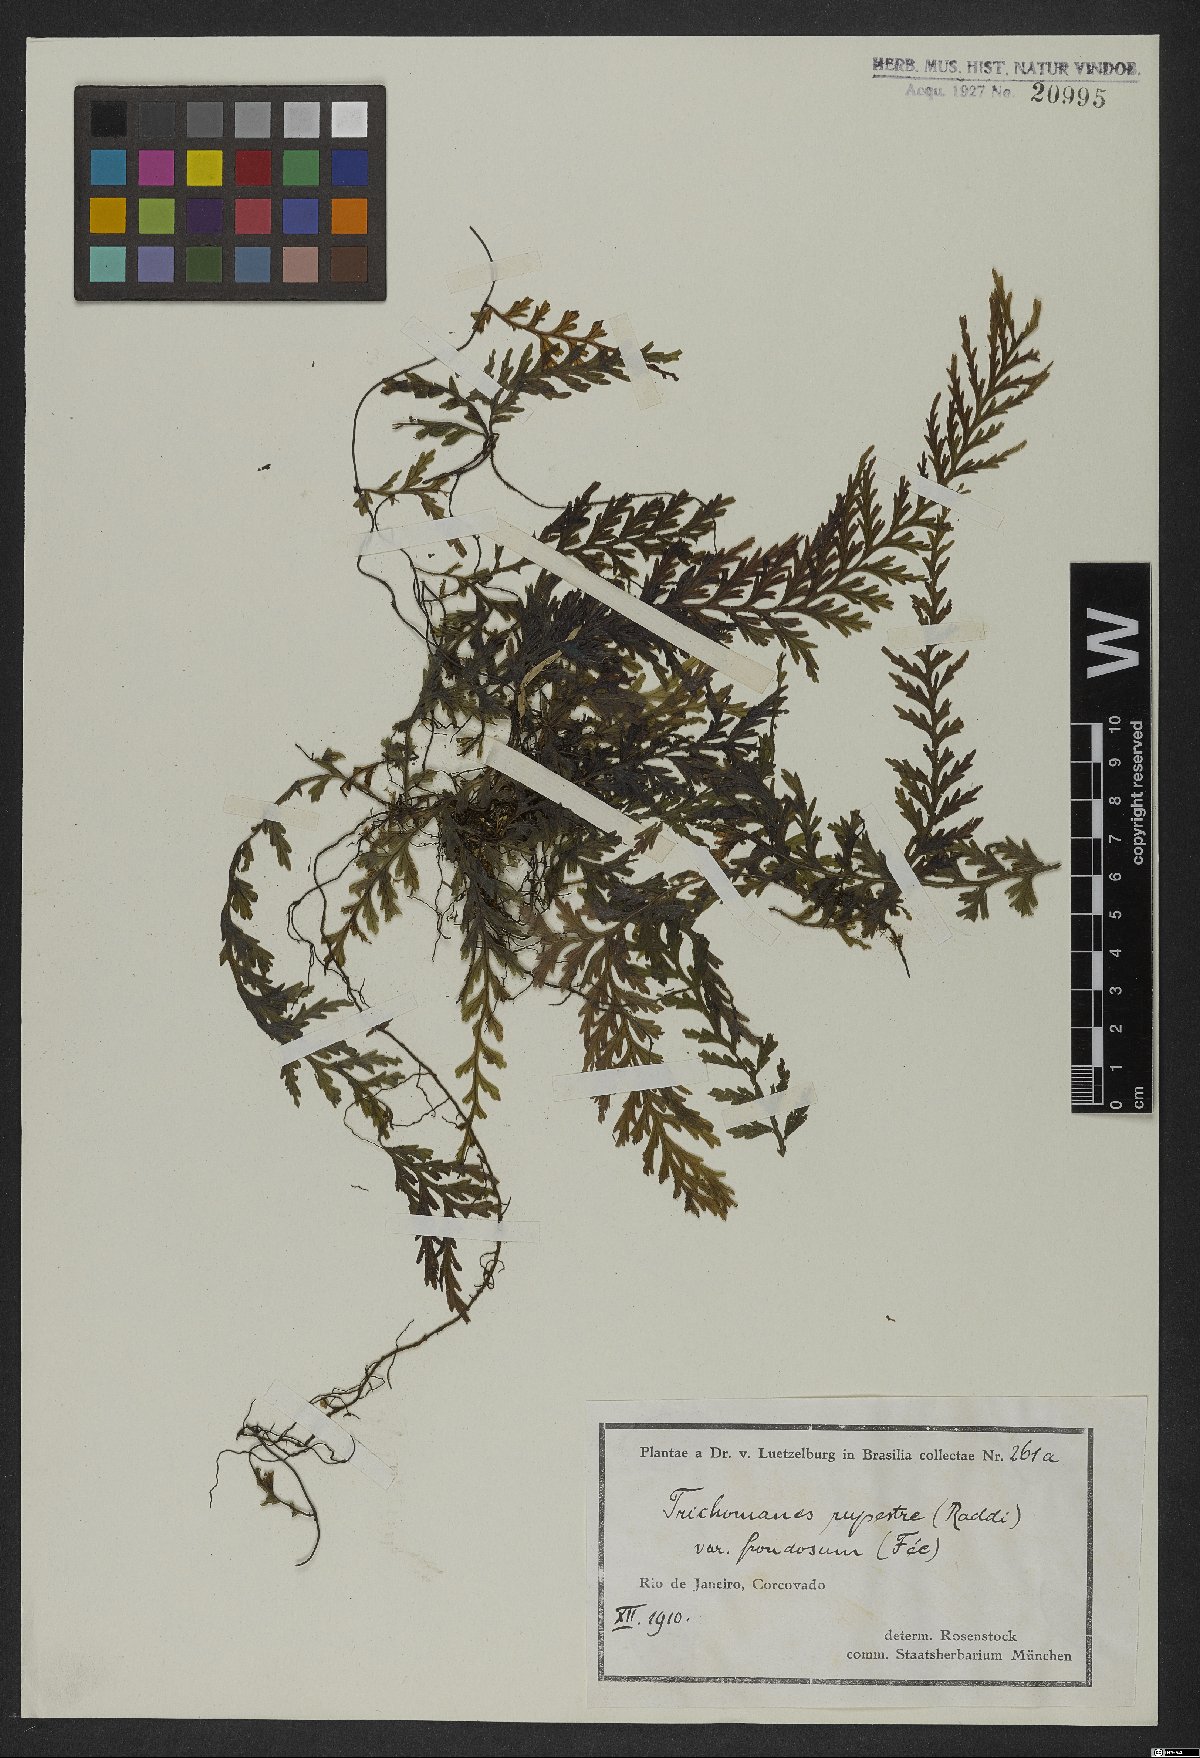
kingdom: Plantae
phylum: Tracheophyta
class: Polypodiopsida
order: Hymenophyllales
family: Hymenophyllaceae
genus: Vandenboschia
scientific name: Vandenboschia rupestris
